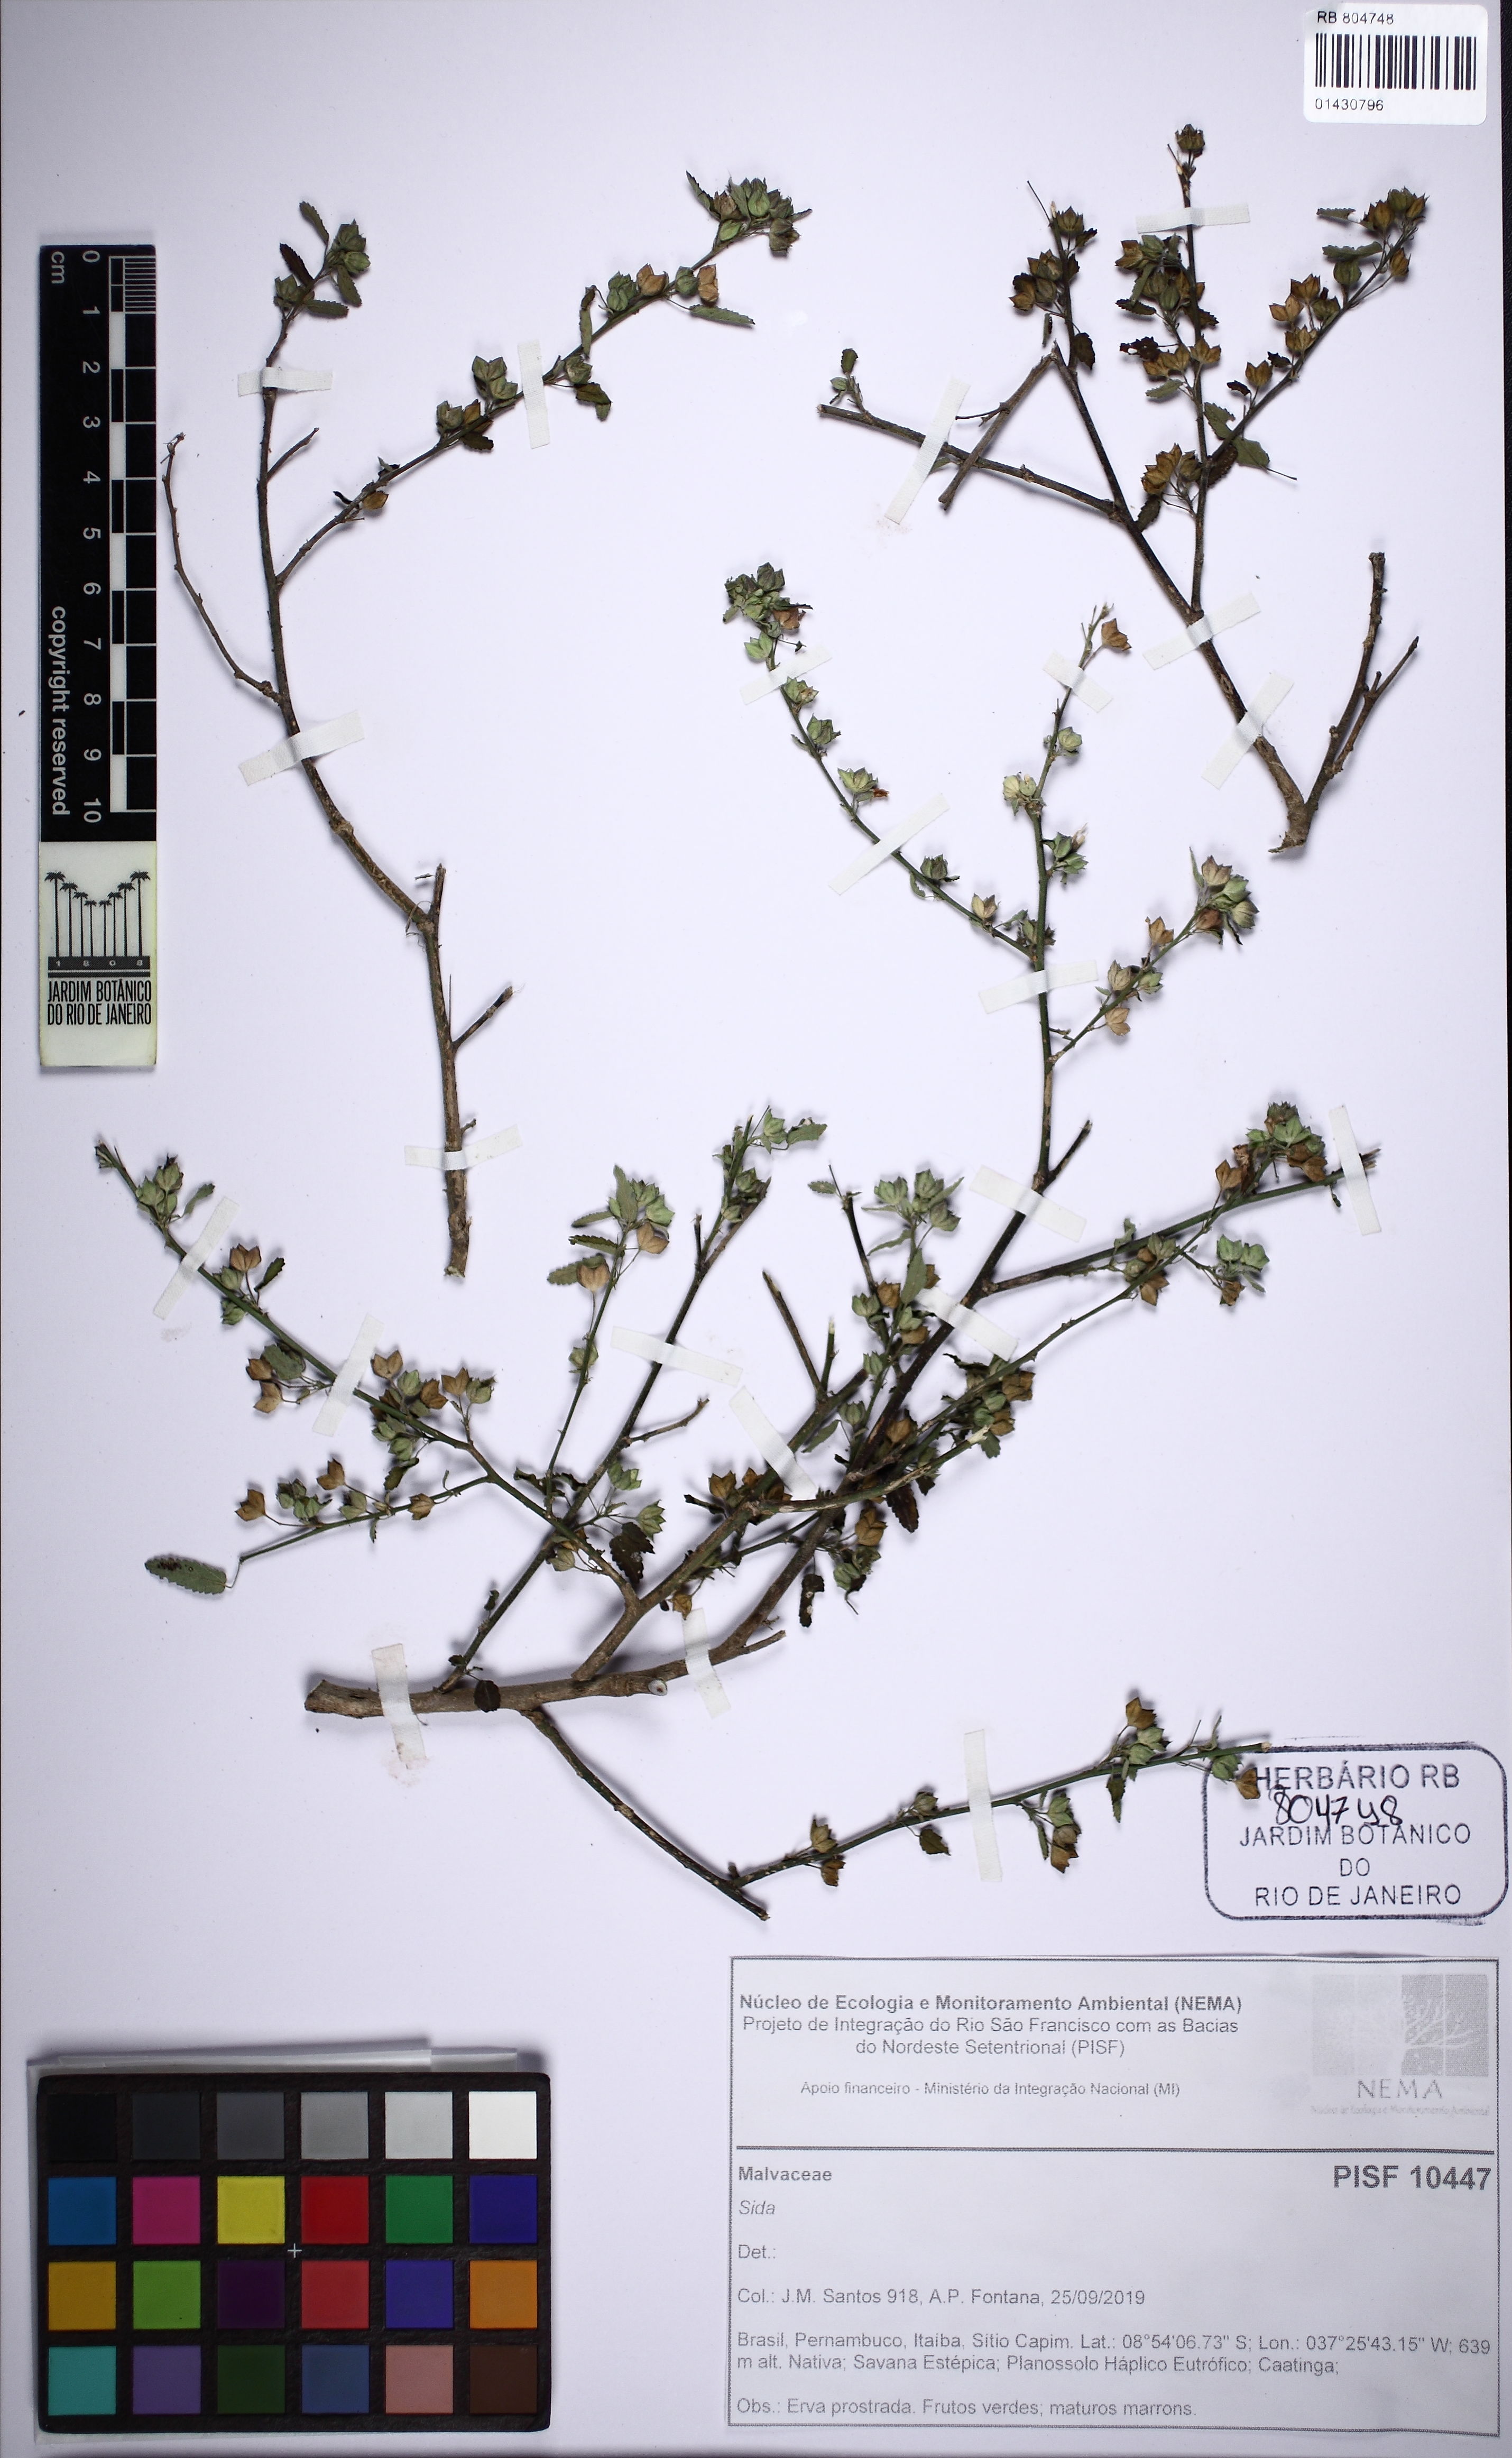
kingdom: Plantae
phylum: Tracheophyta
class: Magnoliopsida
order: Malvales
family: Malvaceae
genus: Sida
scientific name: Sida spinosa
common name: Prickly fanpetals
